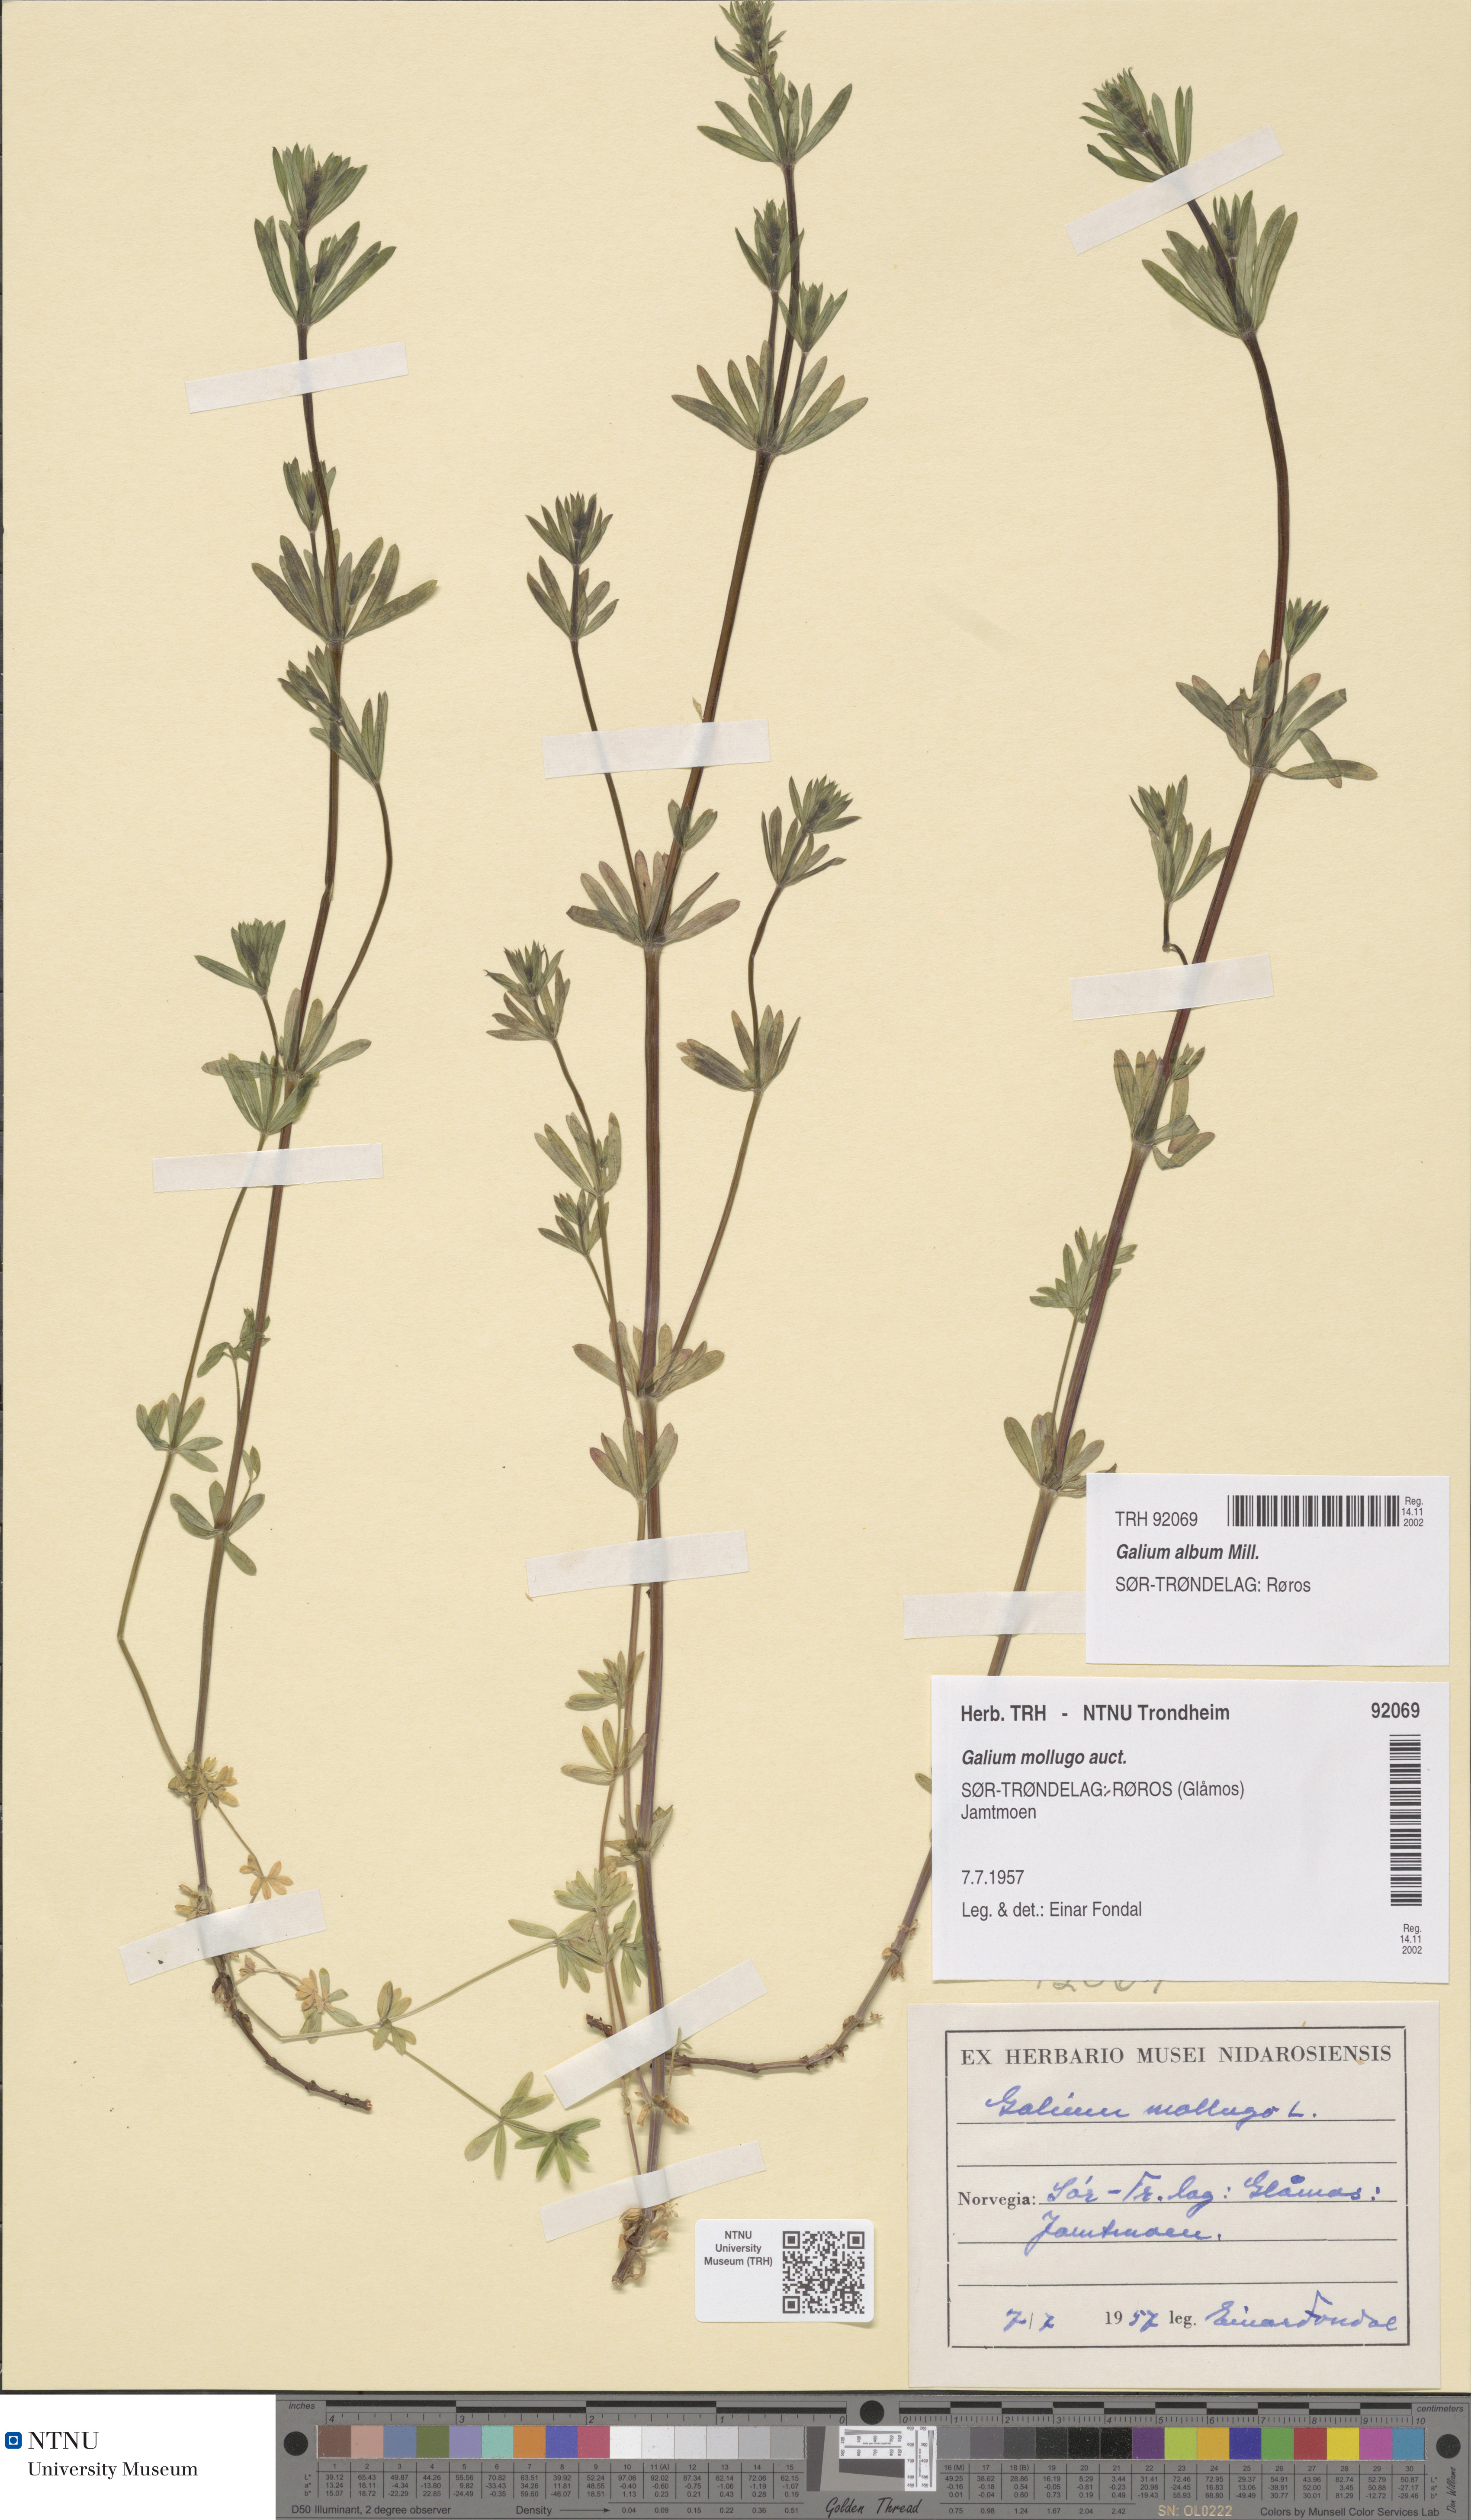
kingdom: Plantae
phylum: Tracheophyta
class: Magnoliopsida
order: Gentianales
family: Rubiaceae
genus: Galium
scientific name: Galium album
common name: White bedstraw
